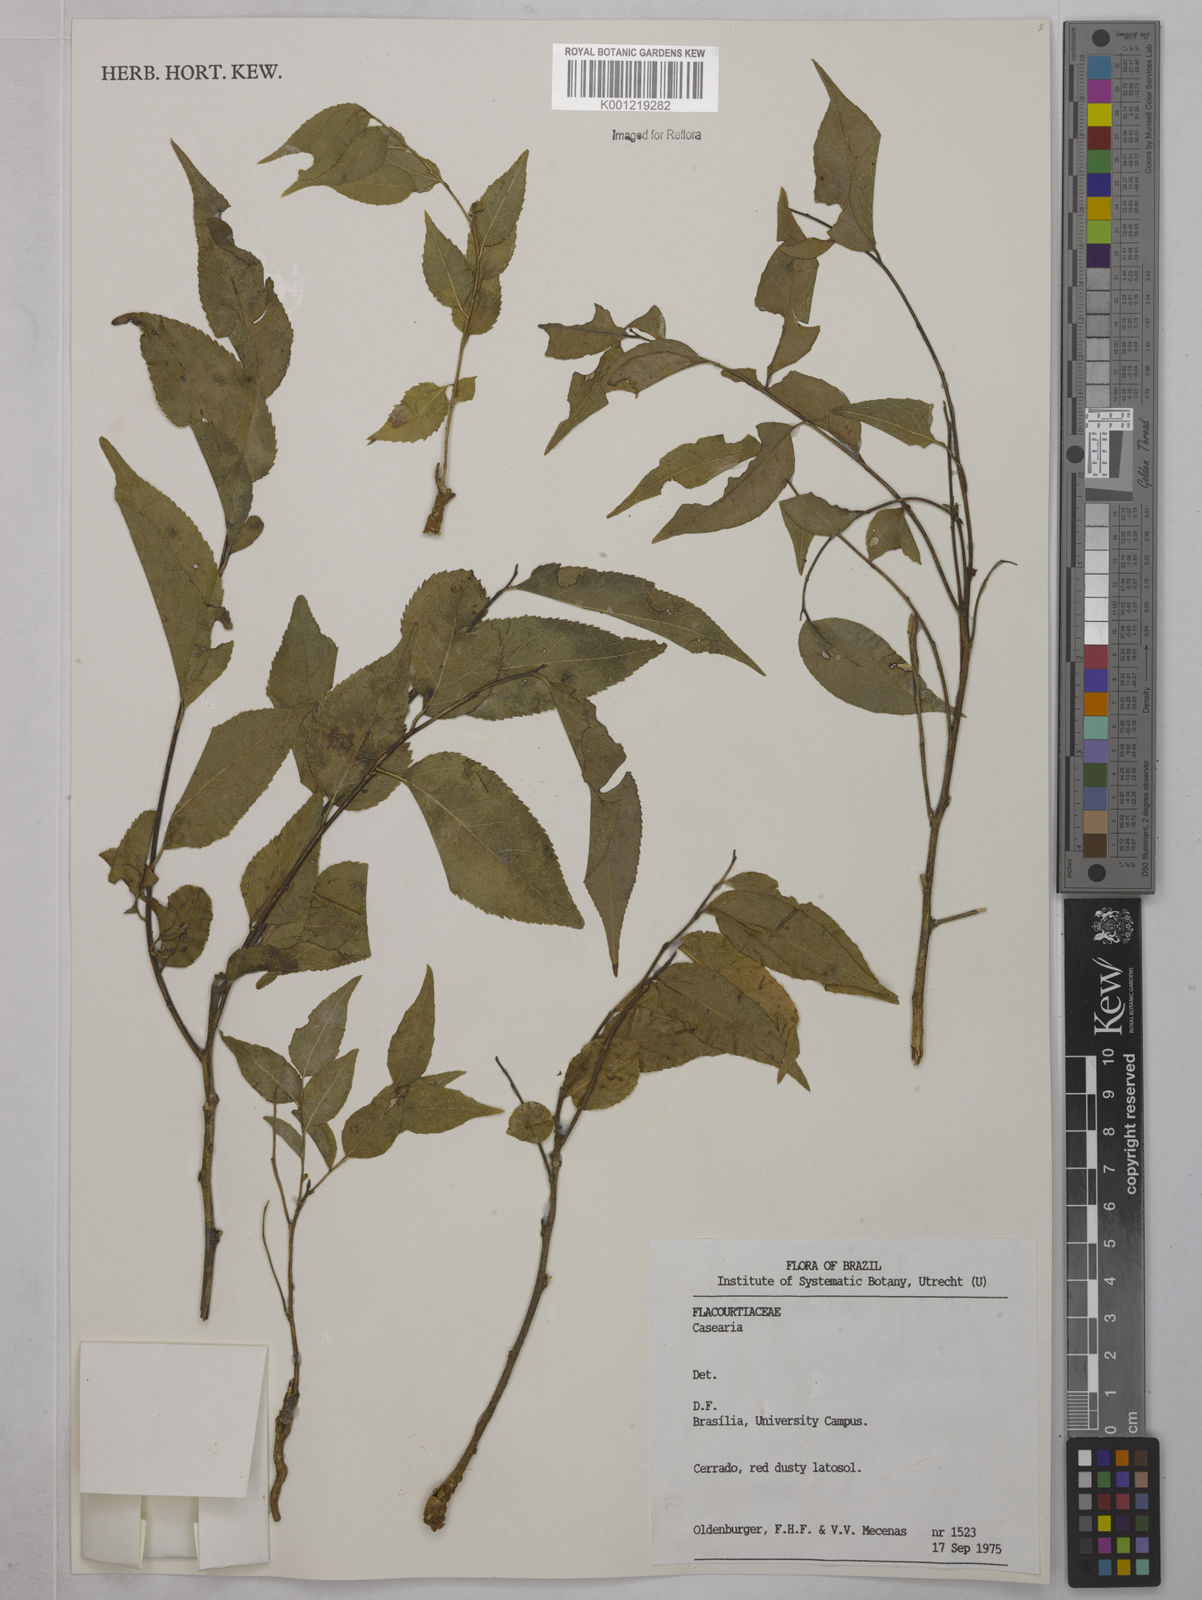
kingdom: Plantae
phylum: Tracheophyta
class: Magnoliopsida
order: Malpighiales
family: Salicaceae
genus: Casearia
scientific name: Casearia
